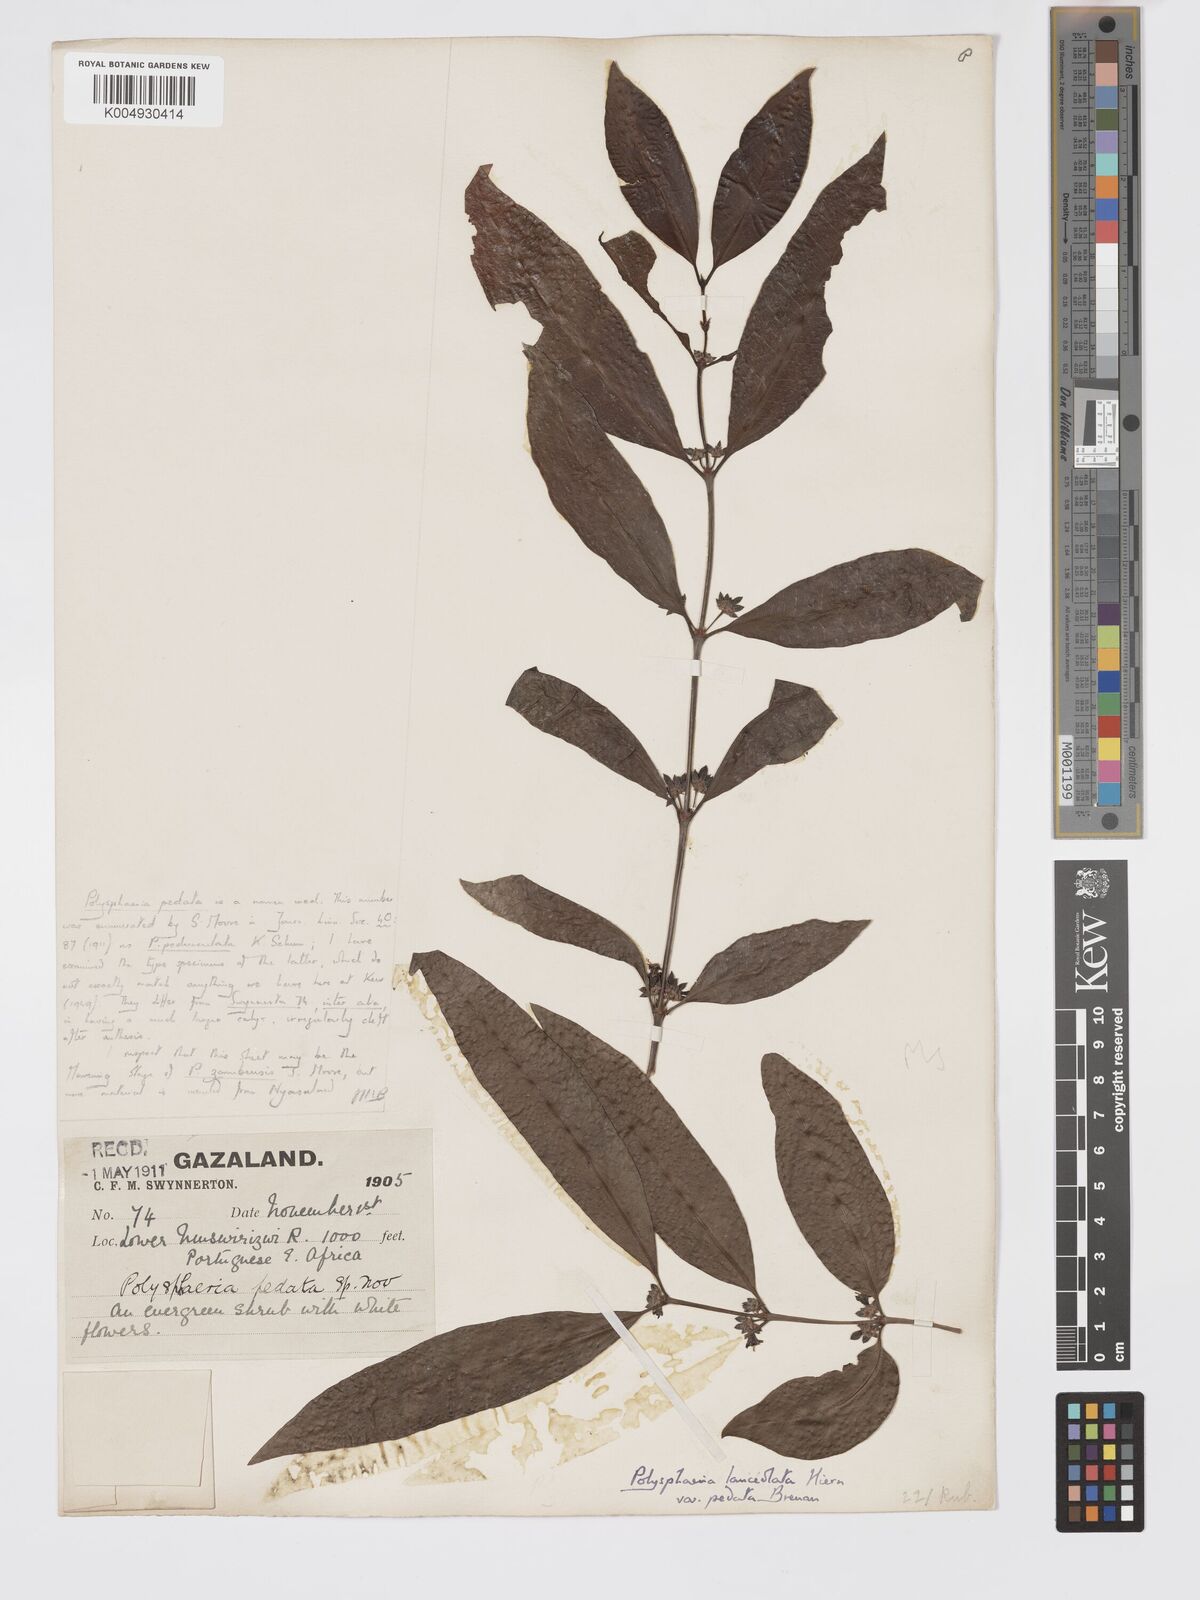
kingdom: Plantae
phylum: Tracheophyta
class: Magnoliopsida
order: Gentianales
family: Rubiaceae
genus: Polysphaeria
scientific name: Polysphaeria lanceolata
